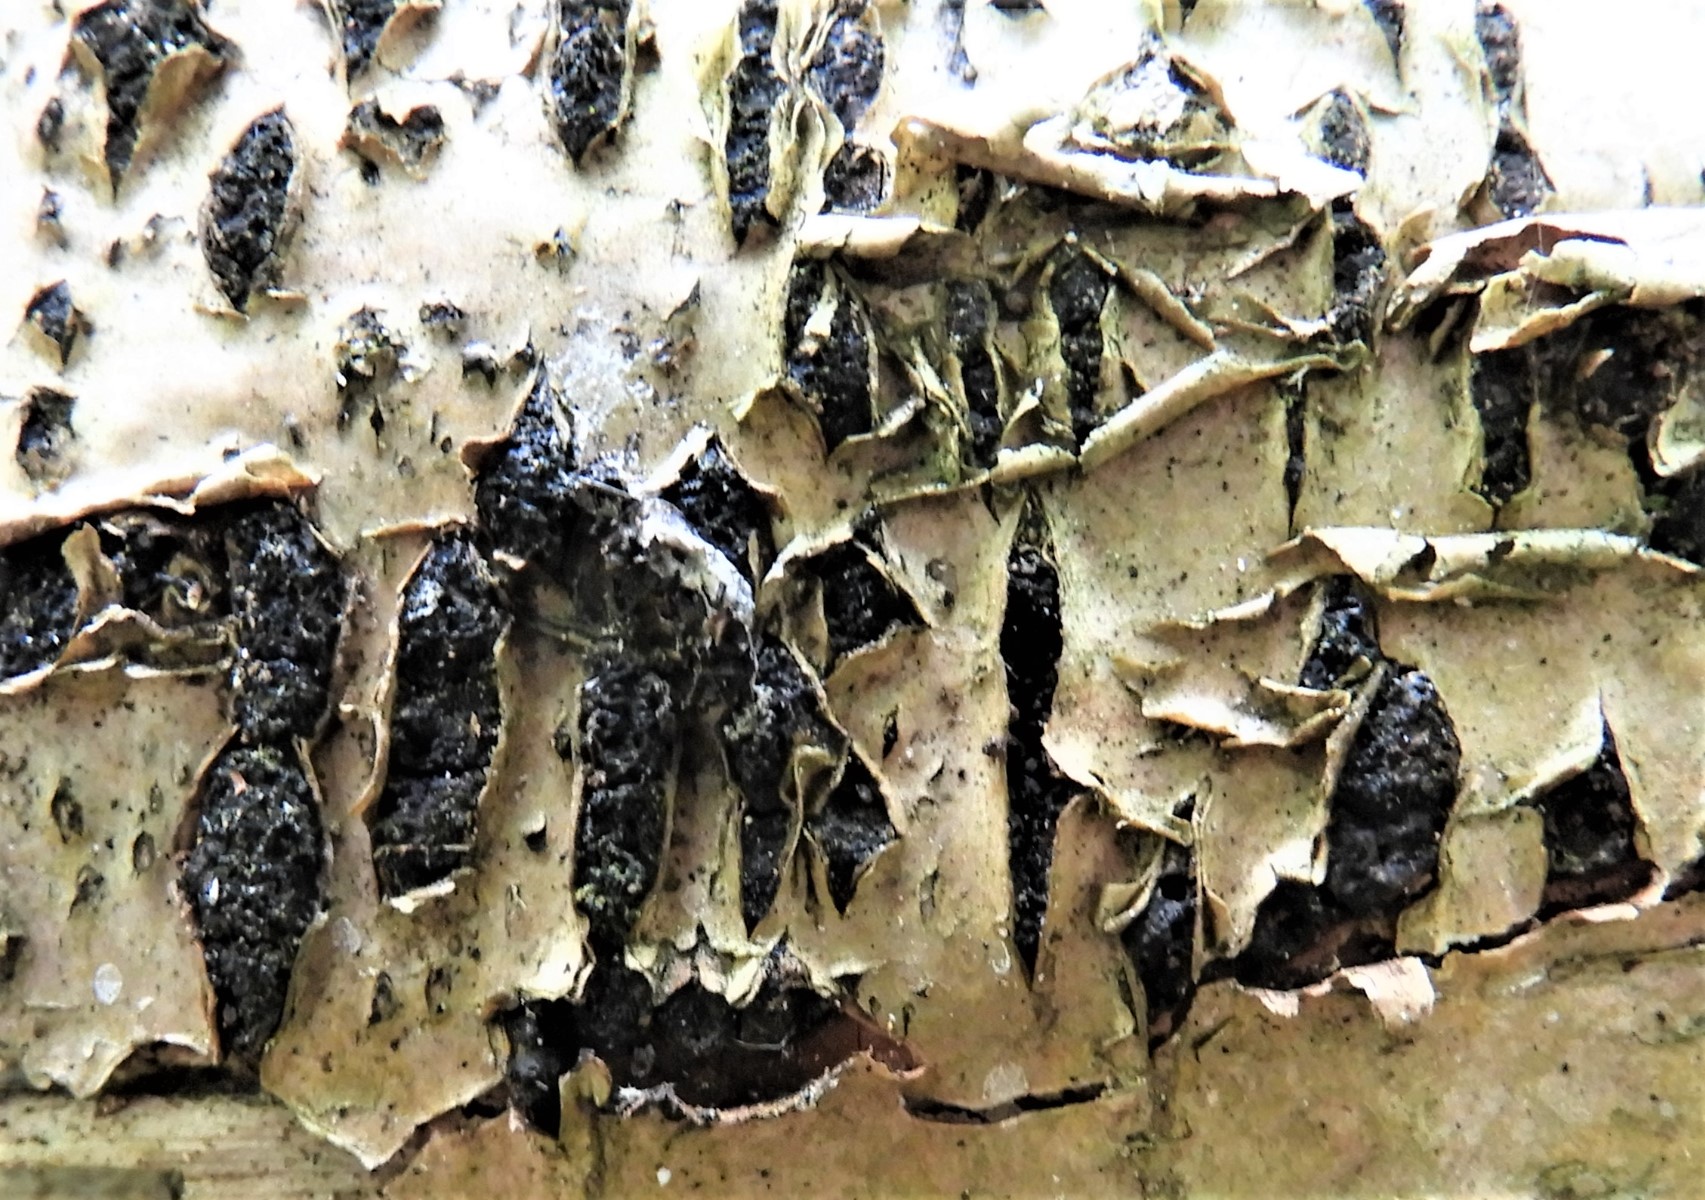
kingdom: Fungi
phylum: Ascomycota
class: Sordariomycetes
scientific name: Sordariomycetes
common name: kernesvampklassen
